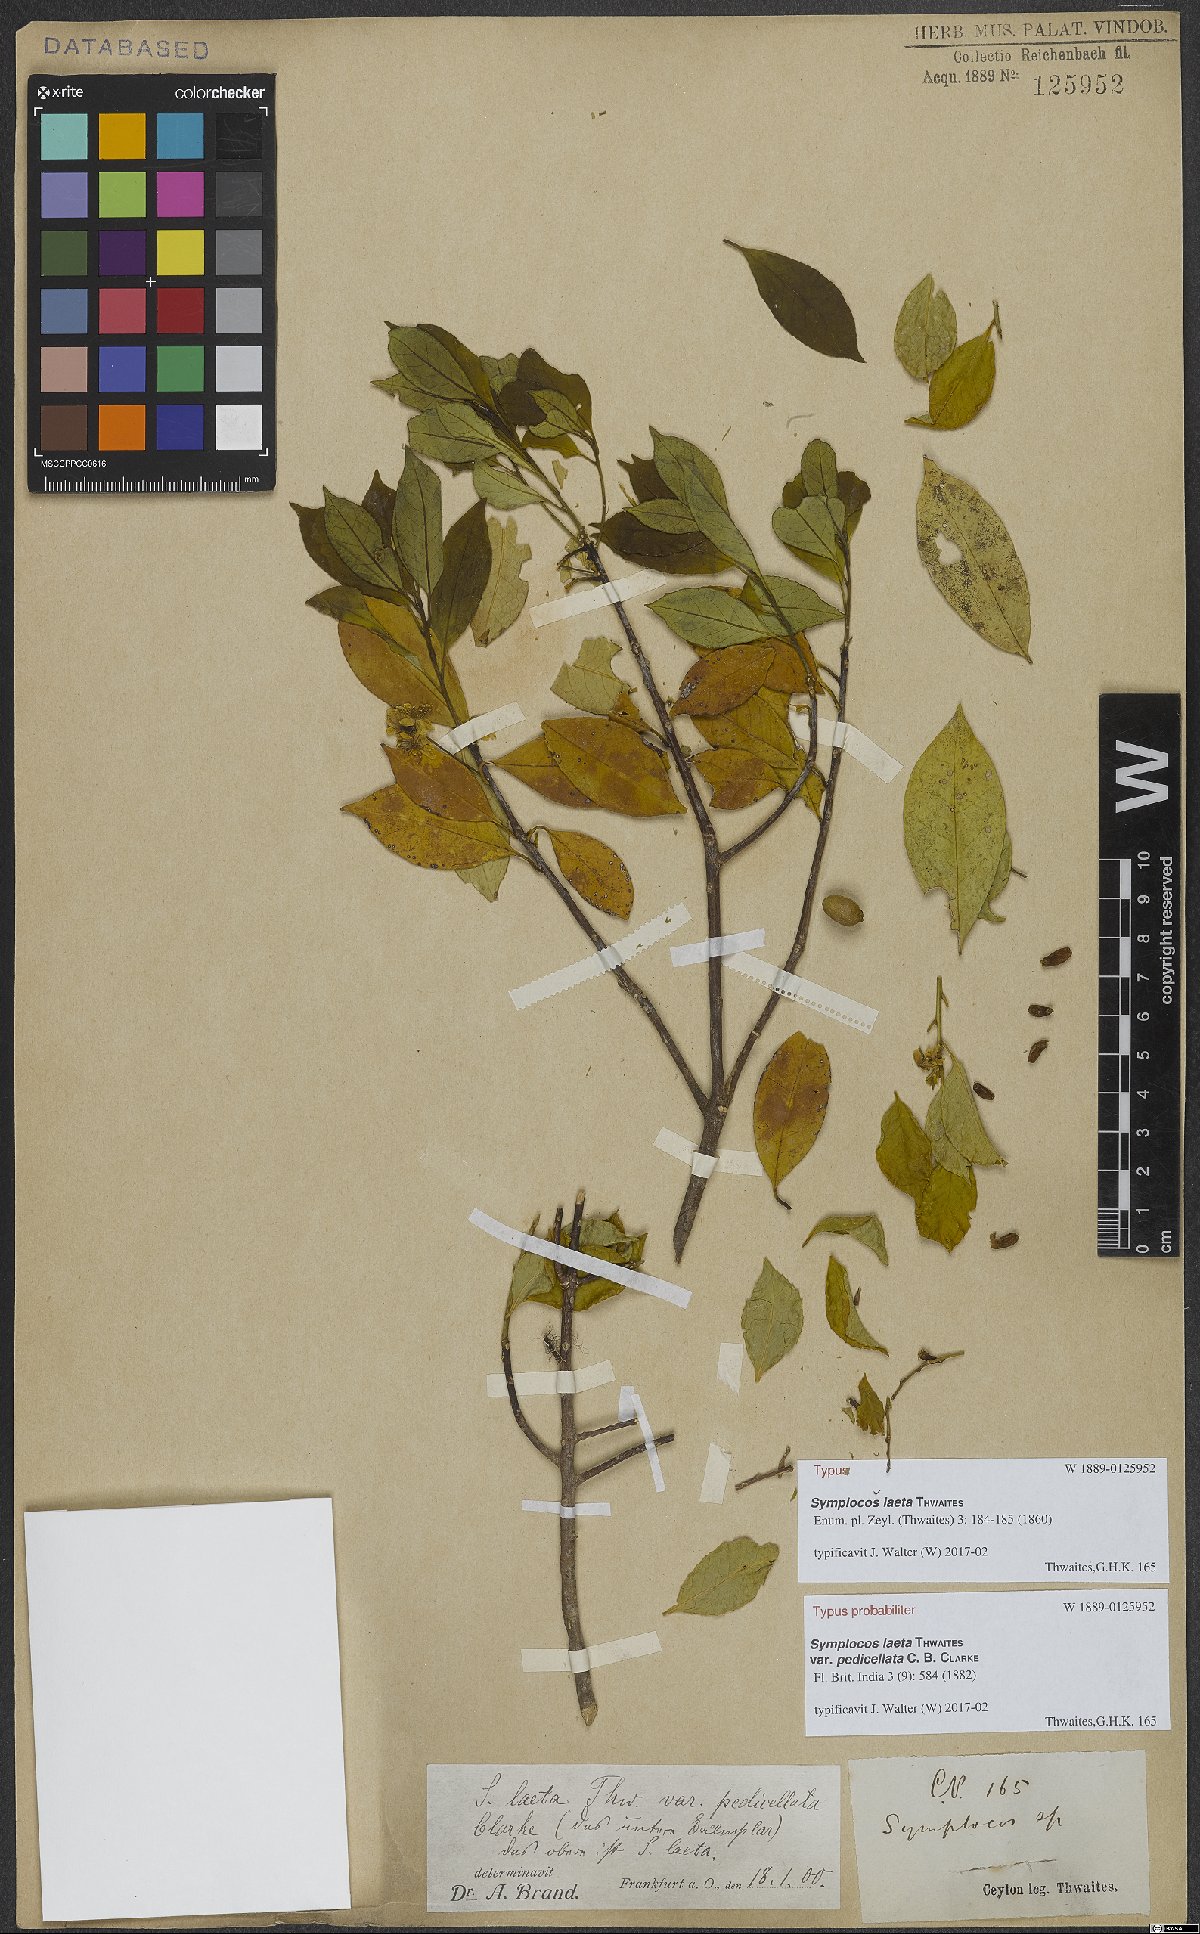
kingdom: Plantae
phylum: Tracheophyta
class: Magnoliopsida
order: Ericales
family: Symplocaceae
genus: Symplocos
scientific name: Symplocos obtusa
